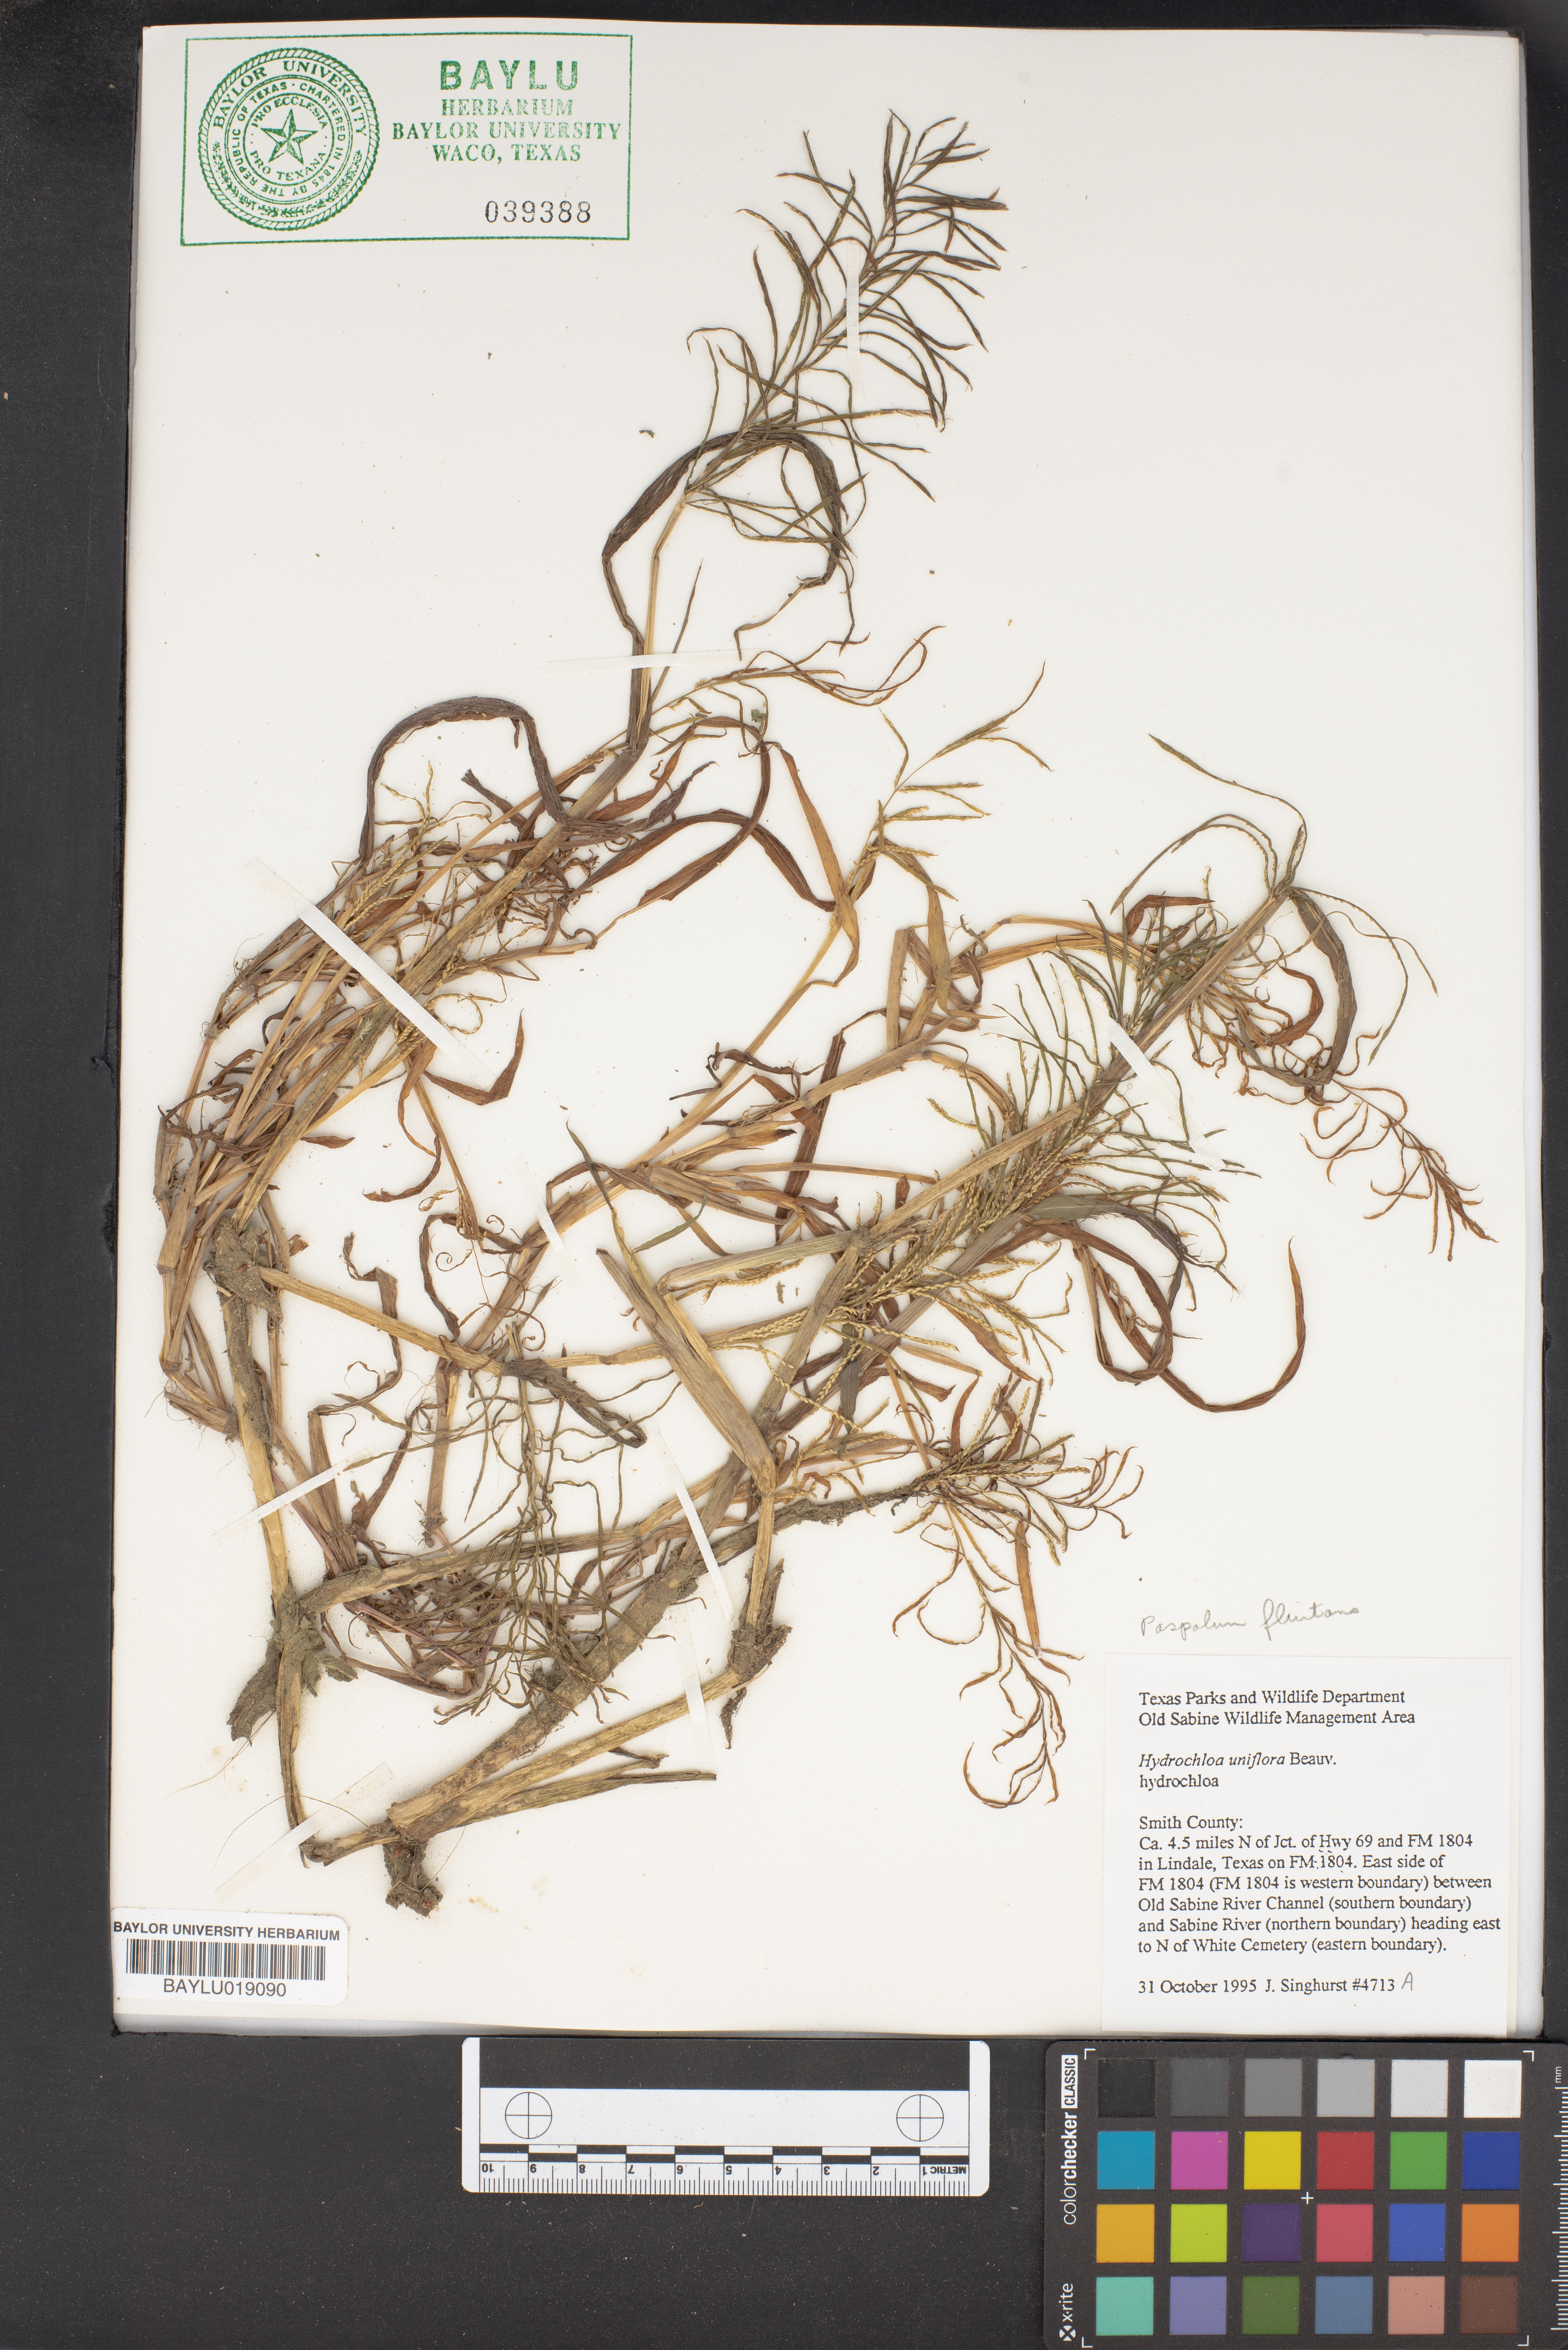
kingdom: Plantae
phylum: Tracheophyta
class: Liliopsida
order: Poales
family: Poaceae
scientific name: Poaceae
